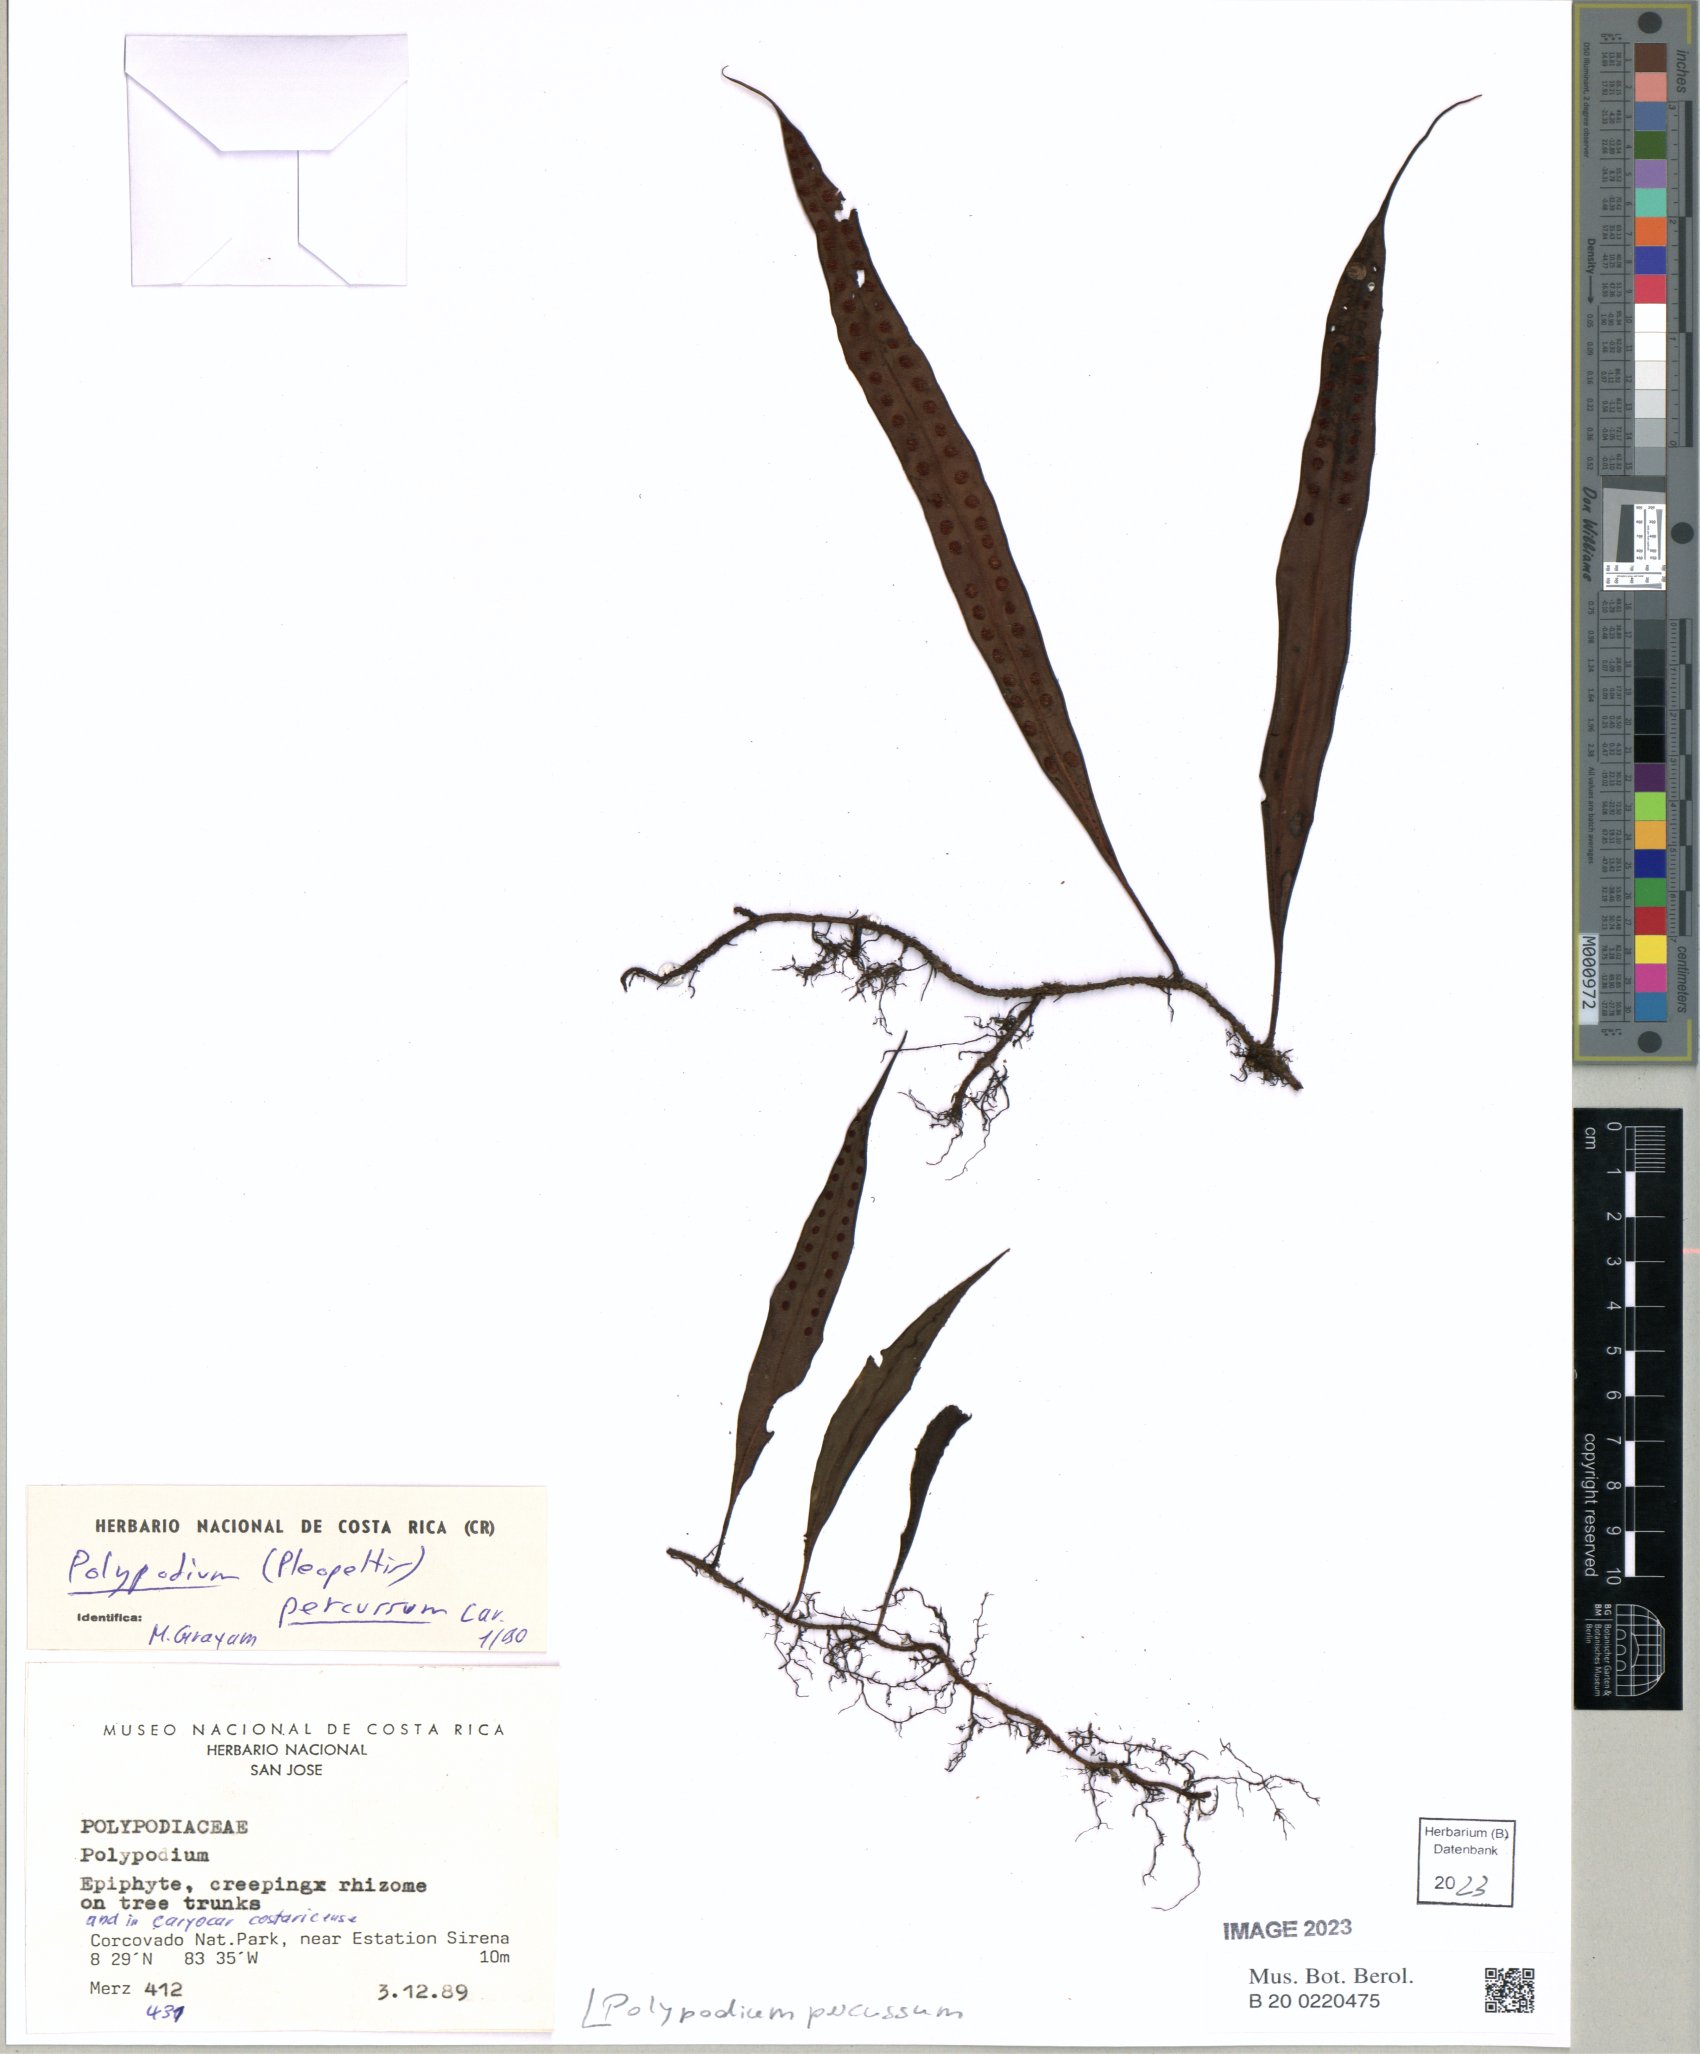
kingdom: Plantae
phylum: Tracheophyta
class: Polypodiopsida
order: Polypodiales
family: Polypodiaceae
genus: Microgramma
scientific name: Microgramma percussa
